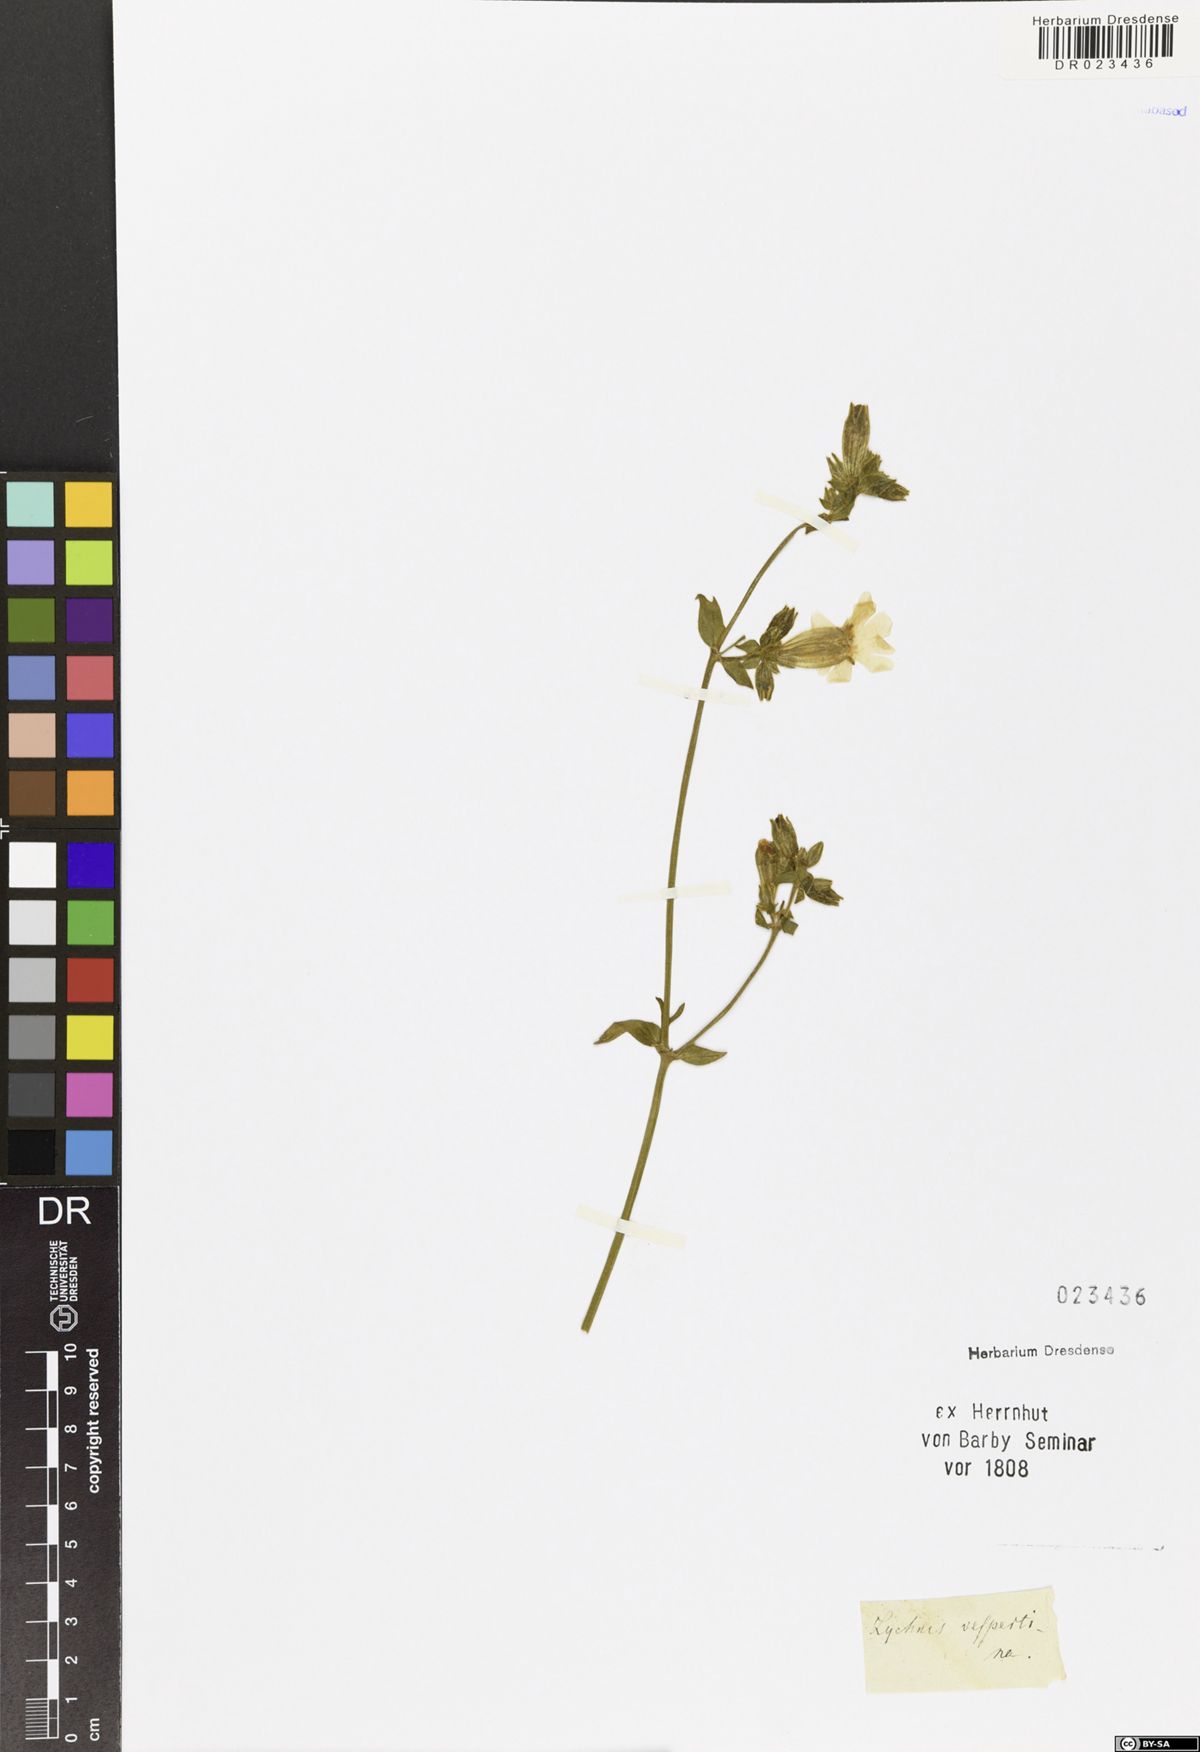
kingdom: Plantae
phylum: Tracheophyta
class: Magnoliopsida
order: Caryophyllales
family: Caryophyllaceae
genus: Silene
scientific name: Silene latifolia
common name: White campion
